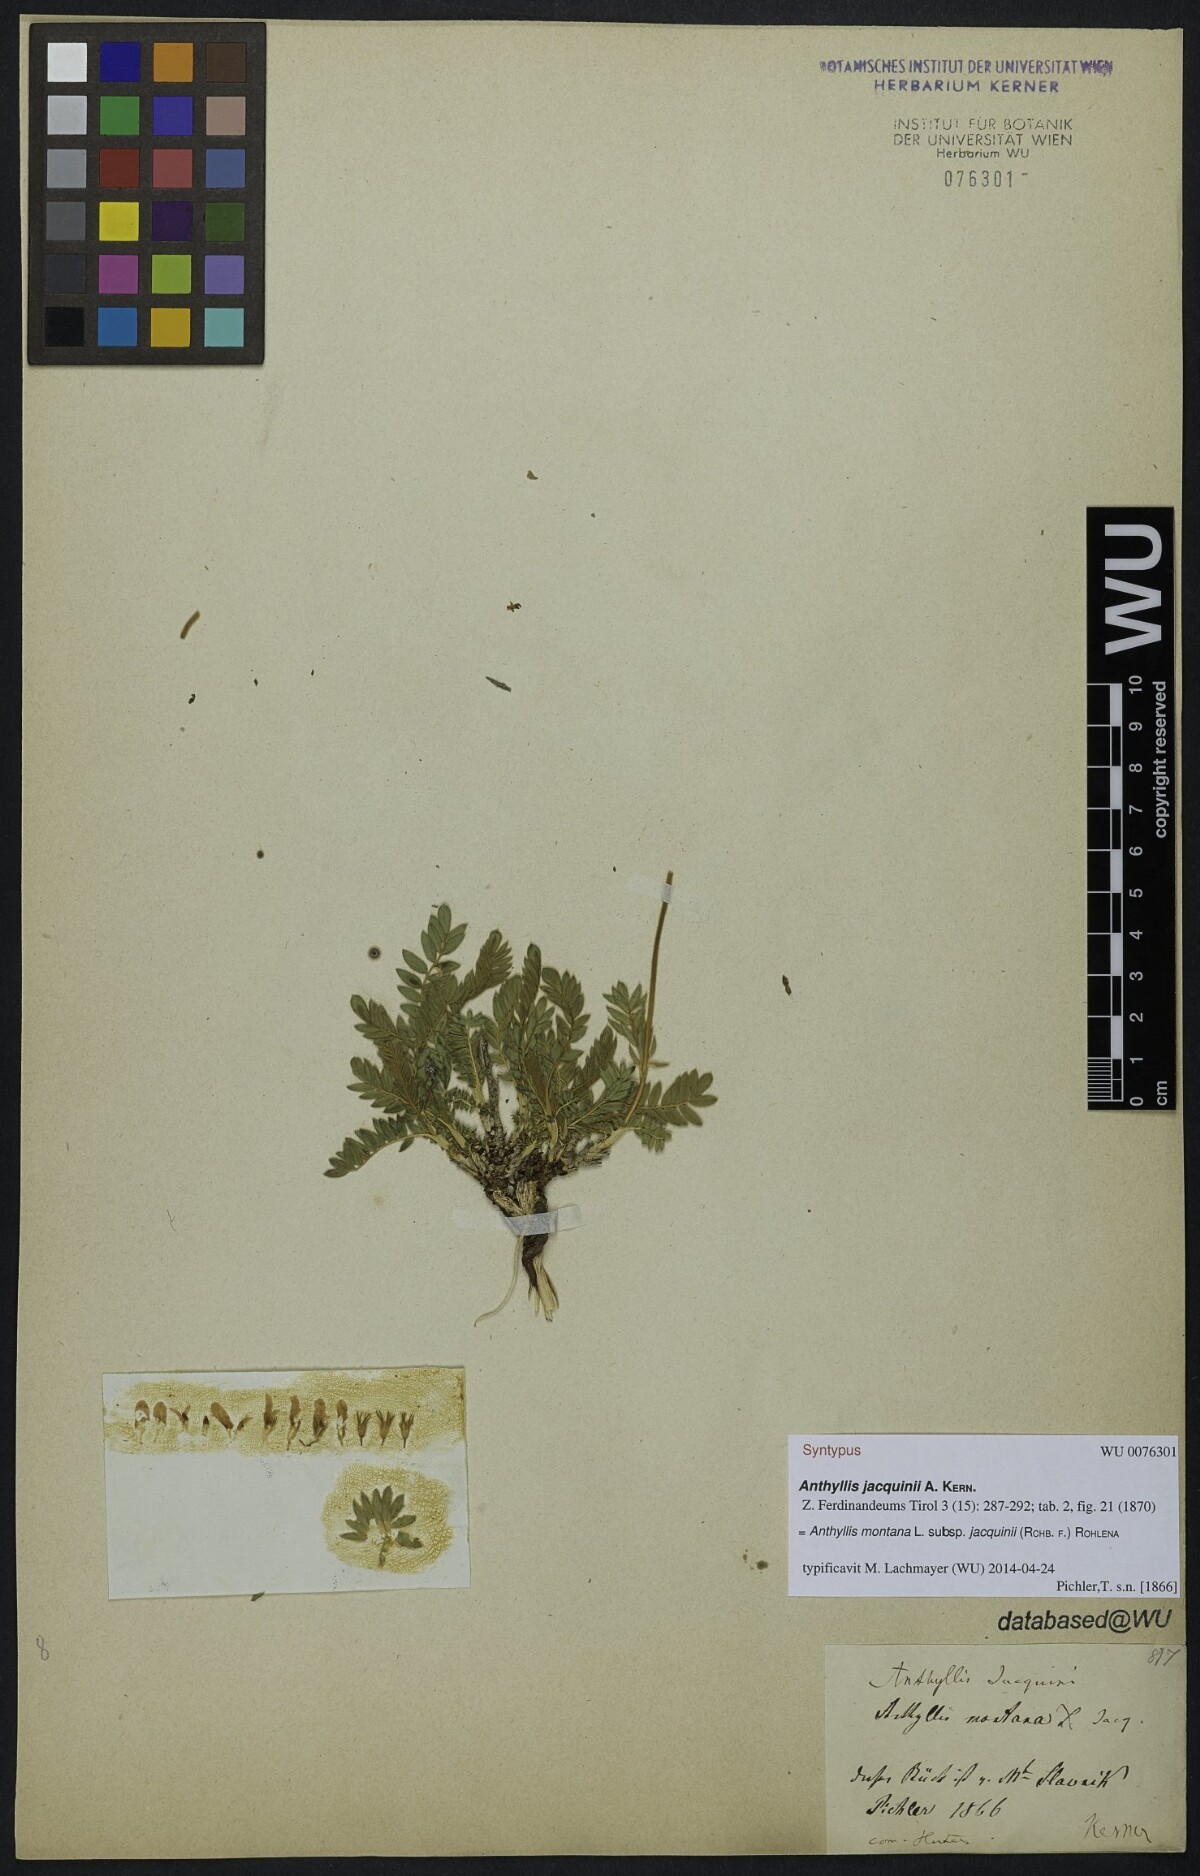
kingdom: Plantae
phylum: Tracheophyta
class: Magnoliopsida
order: Fabales
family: Fabaceae
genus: Anthyllis
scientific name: Anthyllis montana
